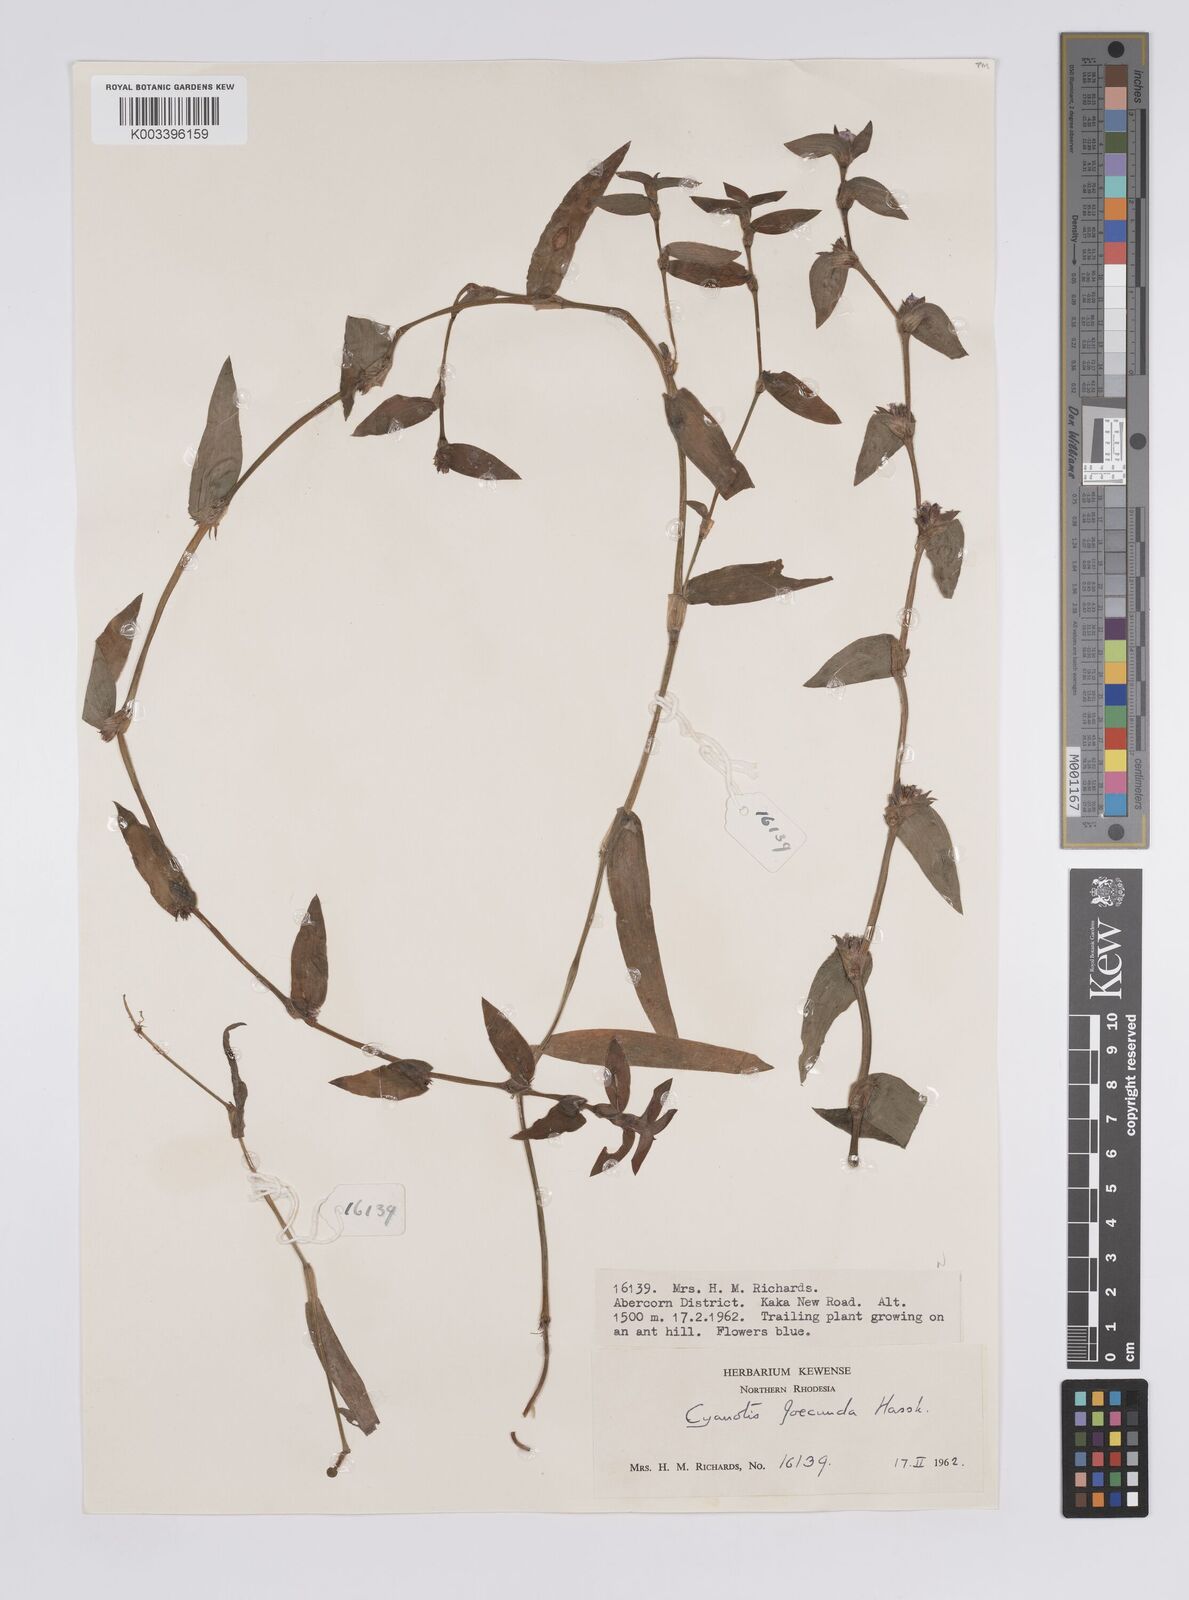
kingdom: Plantae
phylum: Tracheophyta
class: Liliopsida
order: Commelinales
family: Commelinaceae
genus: Cyanotis
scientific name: Cyanotis foecunda
